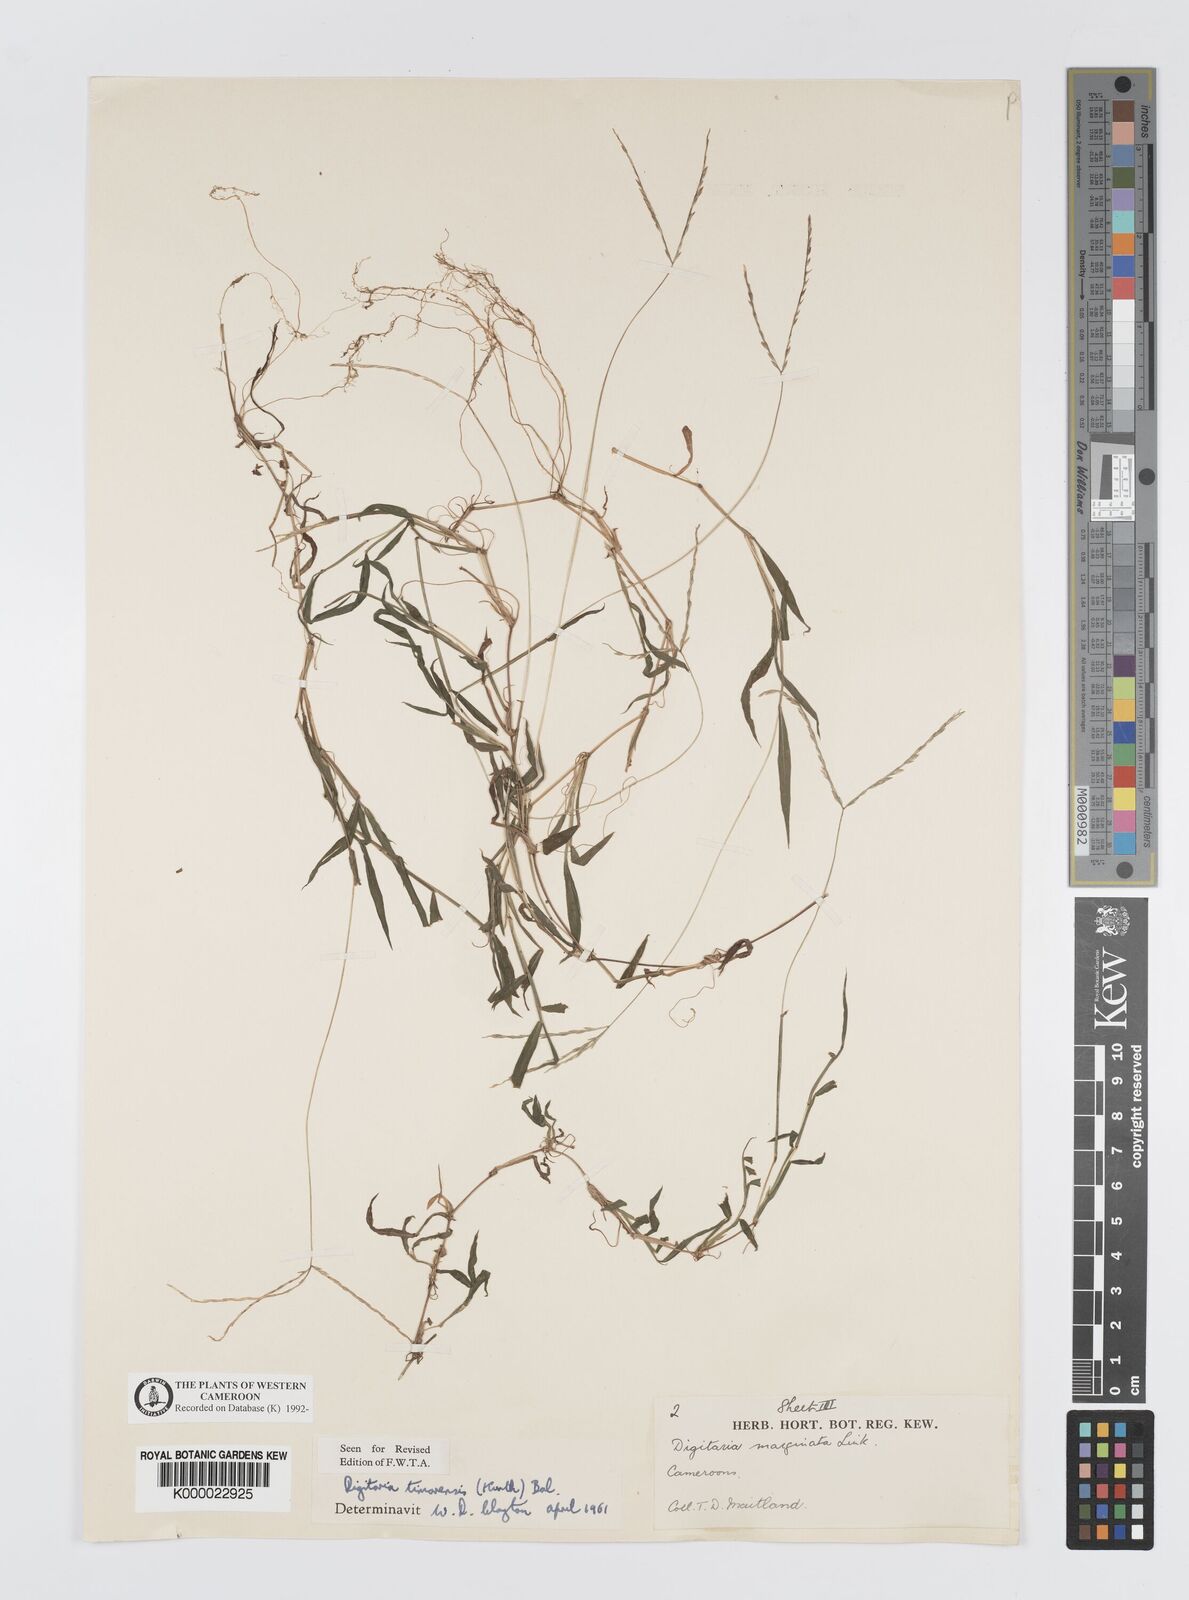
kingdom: Plantae
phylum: Tracheophyta
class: Liliopsida
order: Poales
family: Poaceae
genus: Digitaria
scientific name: Digitaria radicosa
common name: Trailing crabgrass
